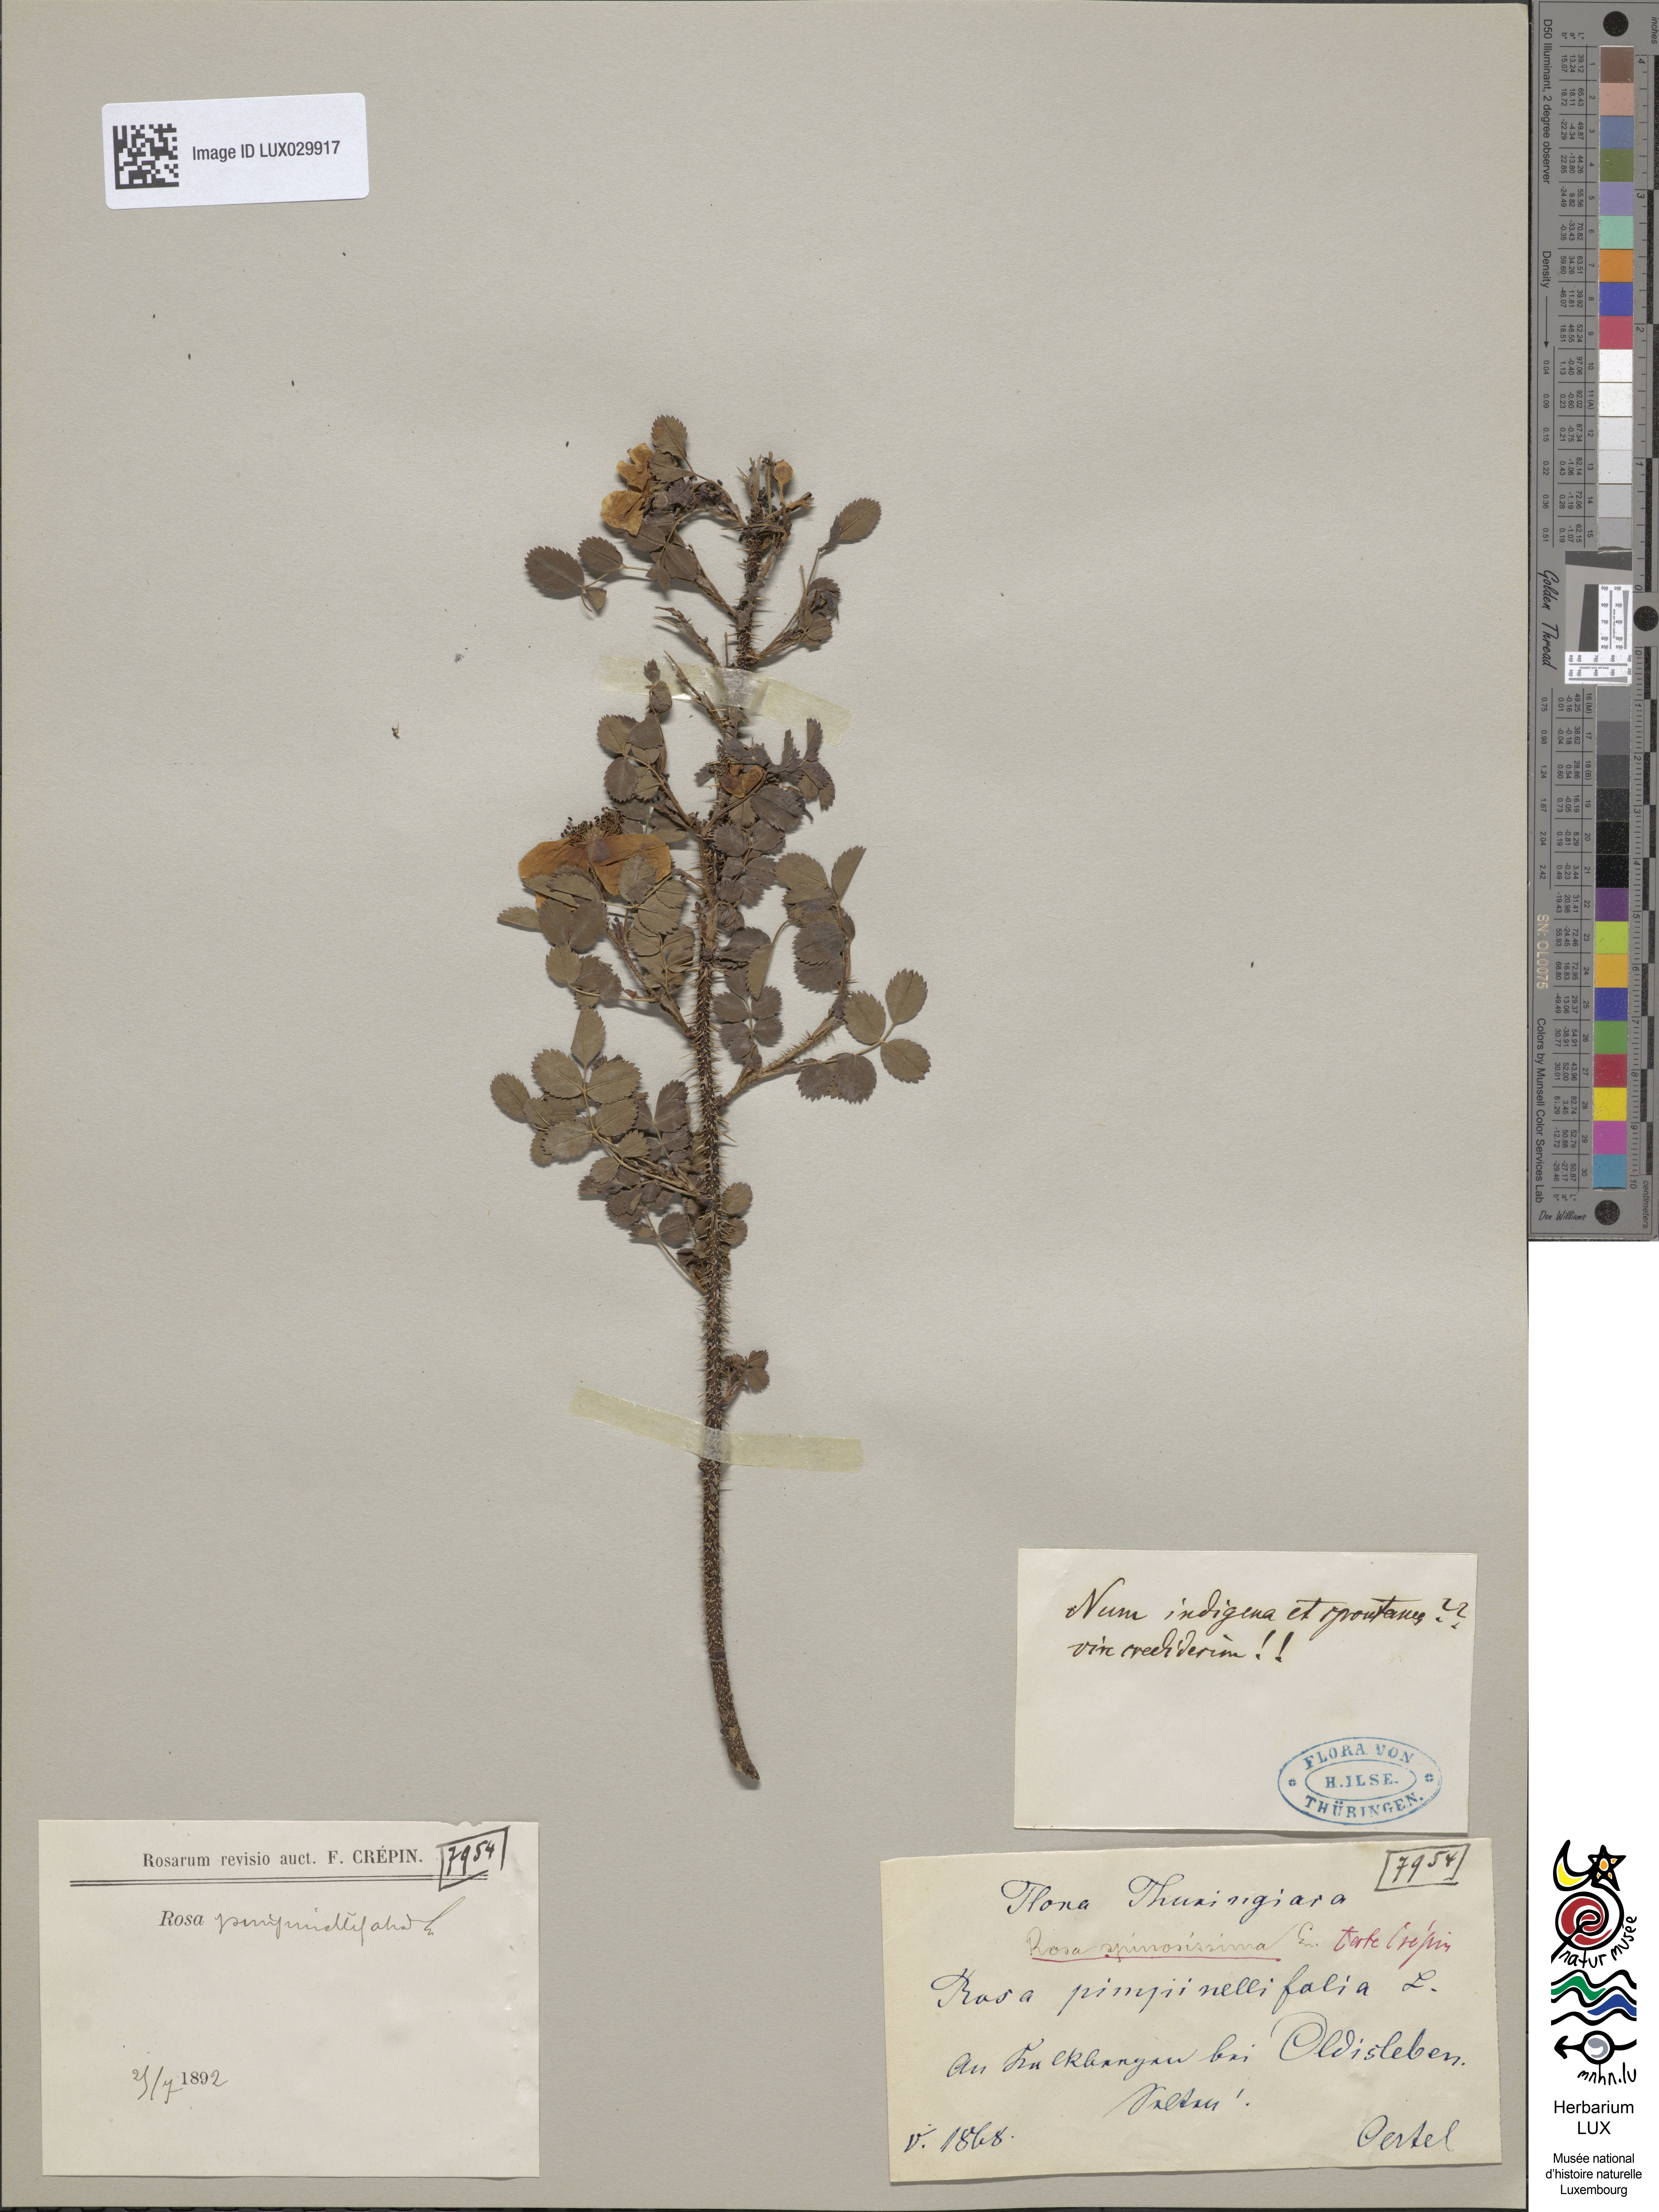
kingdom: Plantae
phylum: Tracheophyta
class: Magnoliopsida
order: Rosales
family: Rosaceae
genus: Rosa
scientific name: Rosa
